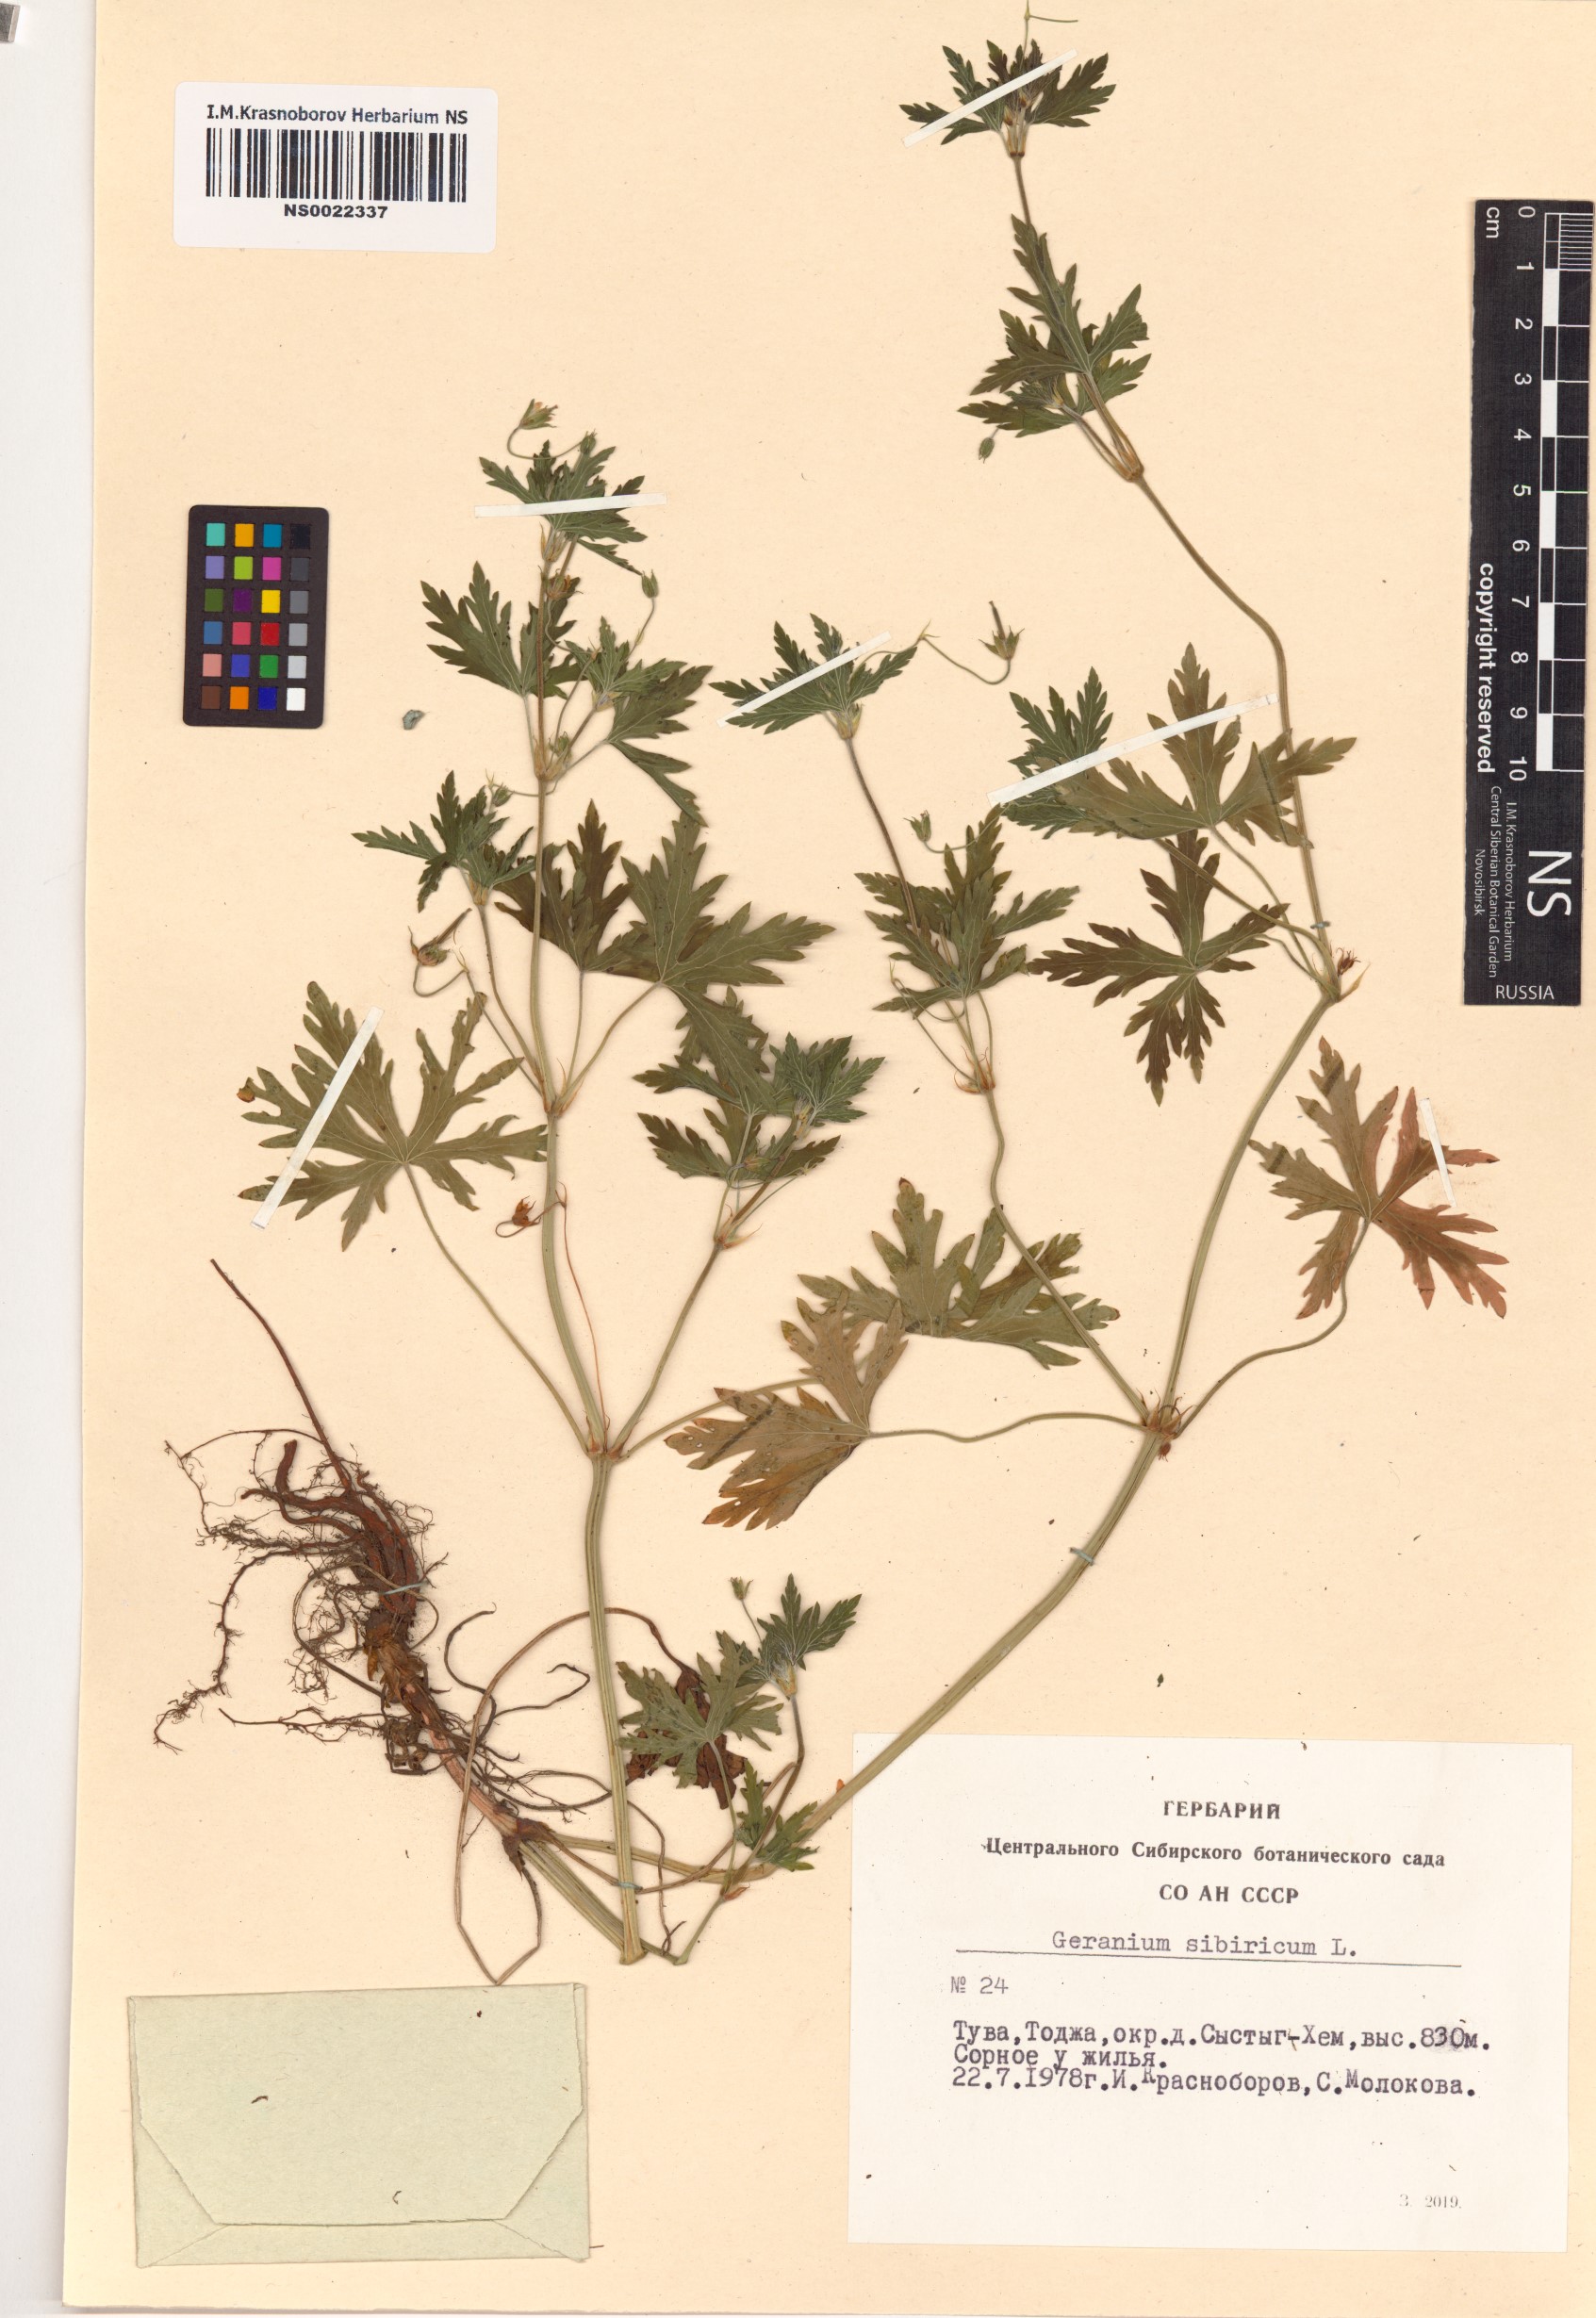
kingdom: Plantae
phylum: Tracheophyta
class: Magnoliopsida
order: Geraniales
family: Geraniaceae
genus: Geranium
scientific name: Geranium sibiricum
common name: Siberian crane's-bill
